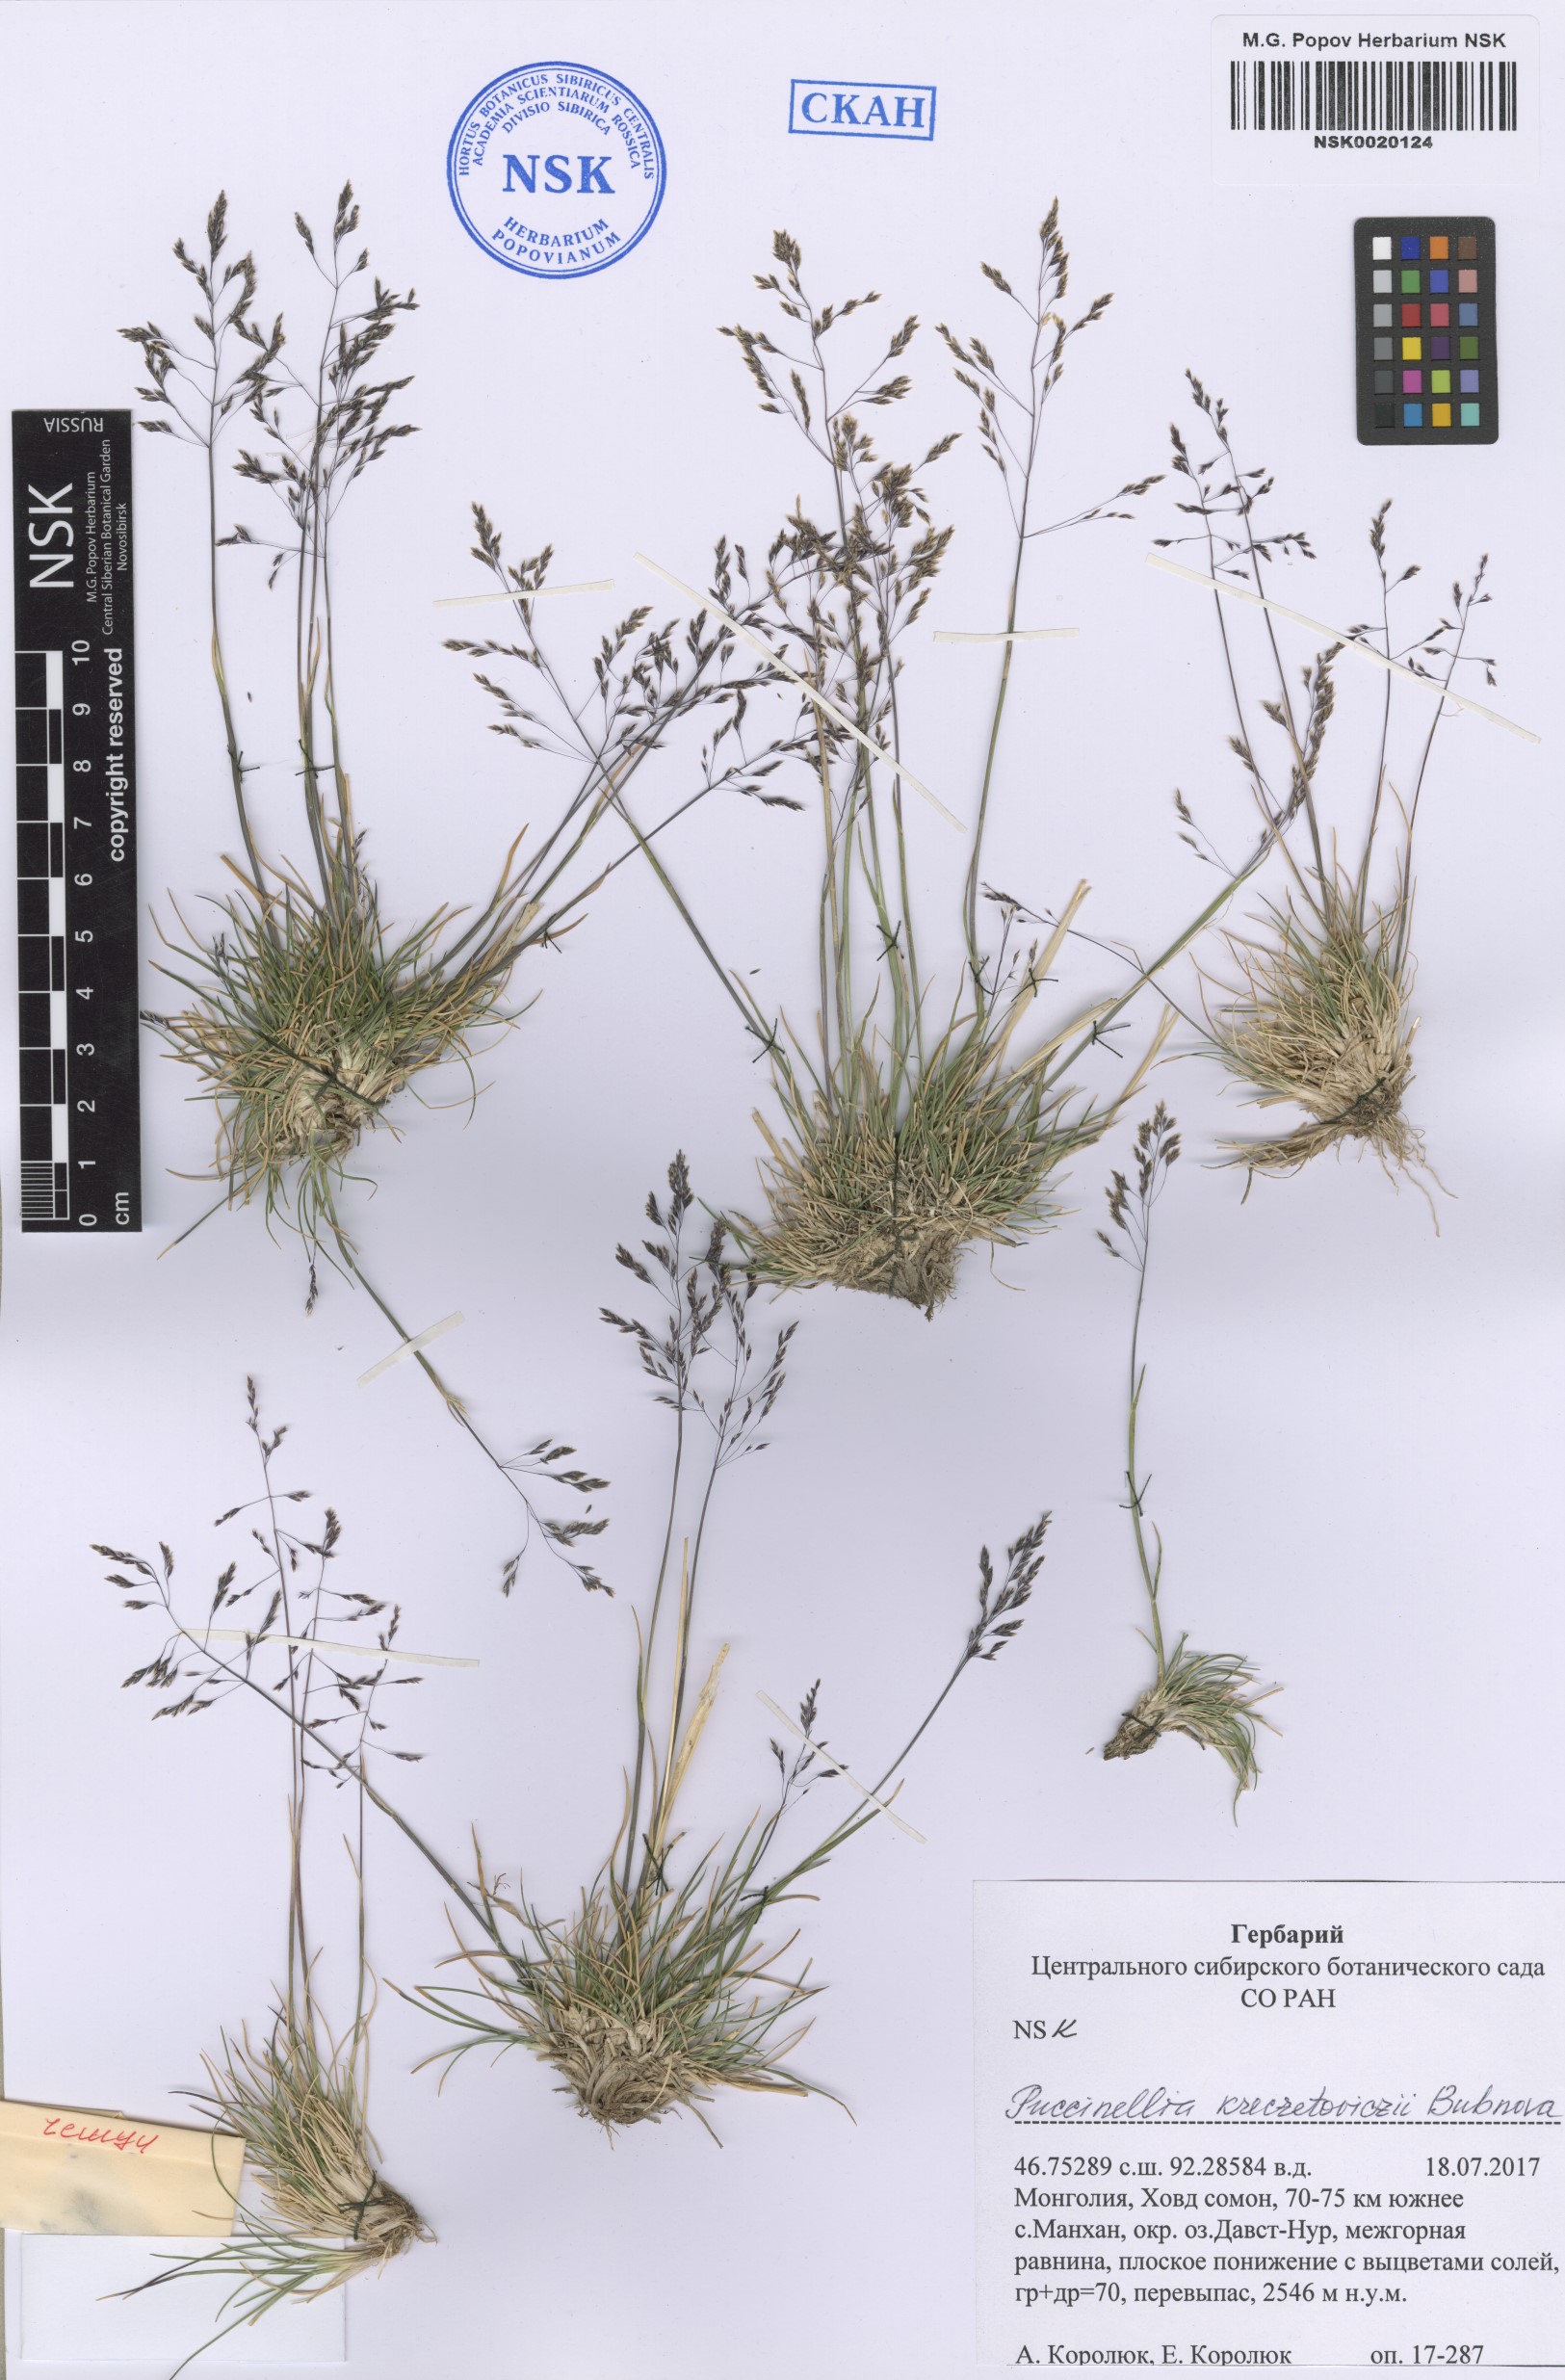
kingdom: Plantae
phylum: Tracheophyta
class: Liliopsida
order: Poales
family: Poaceae
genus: Puccinellia
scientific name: Puccinellia tenuiflora
